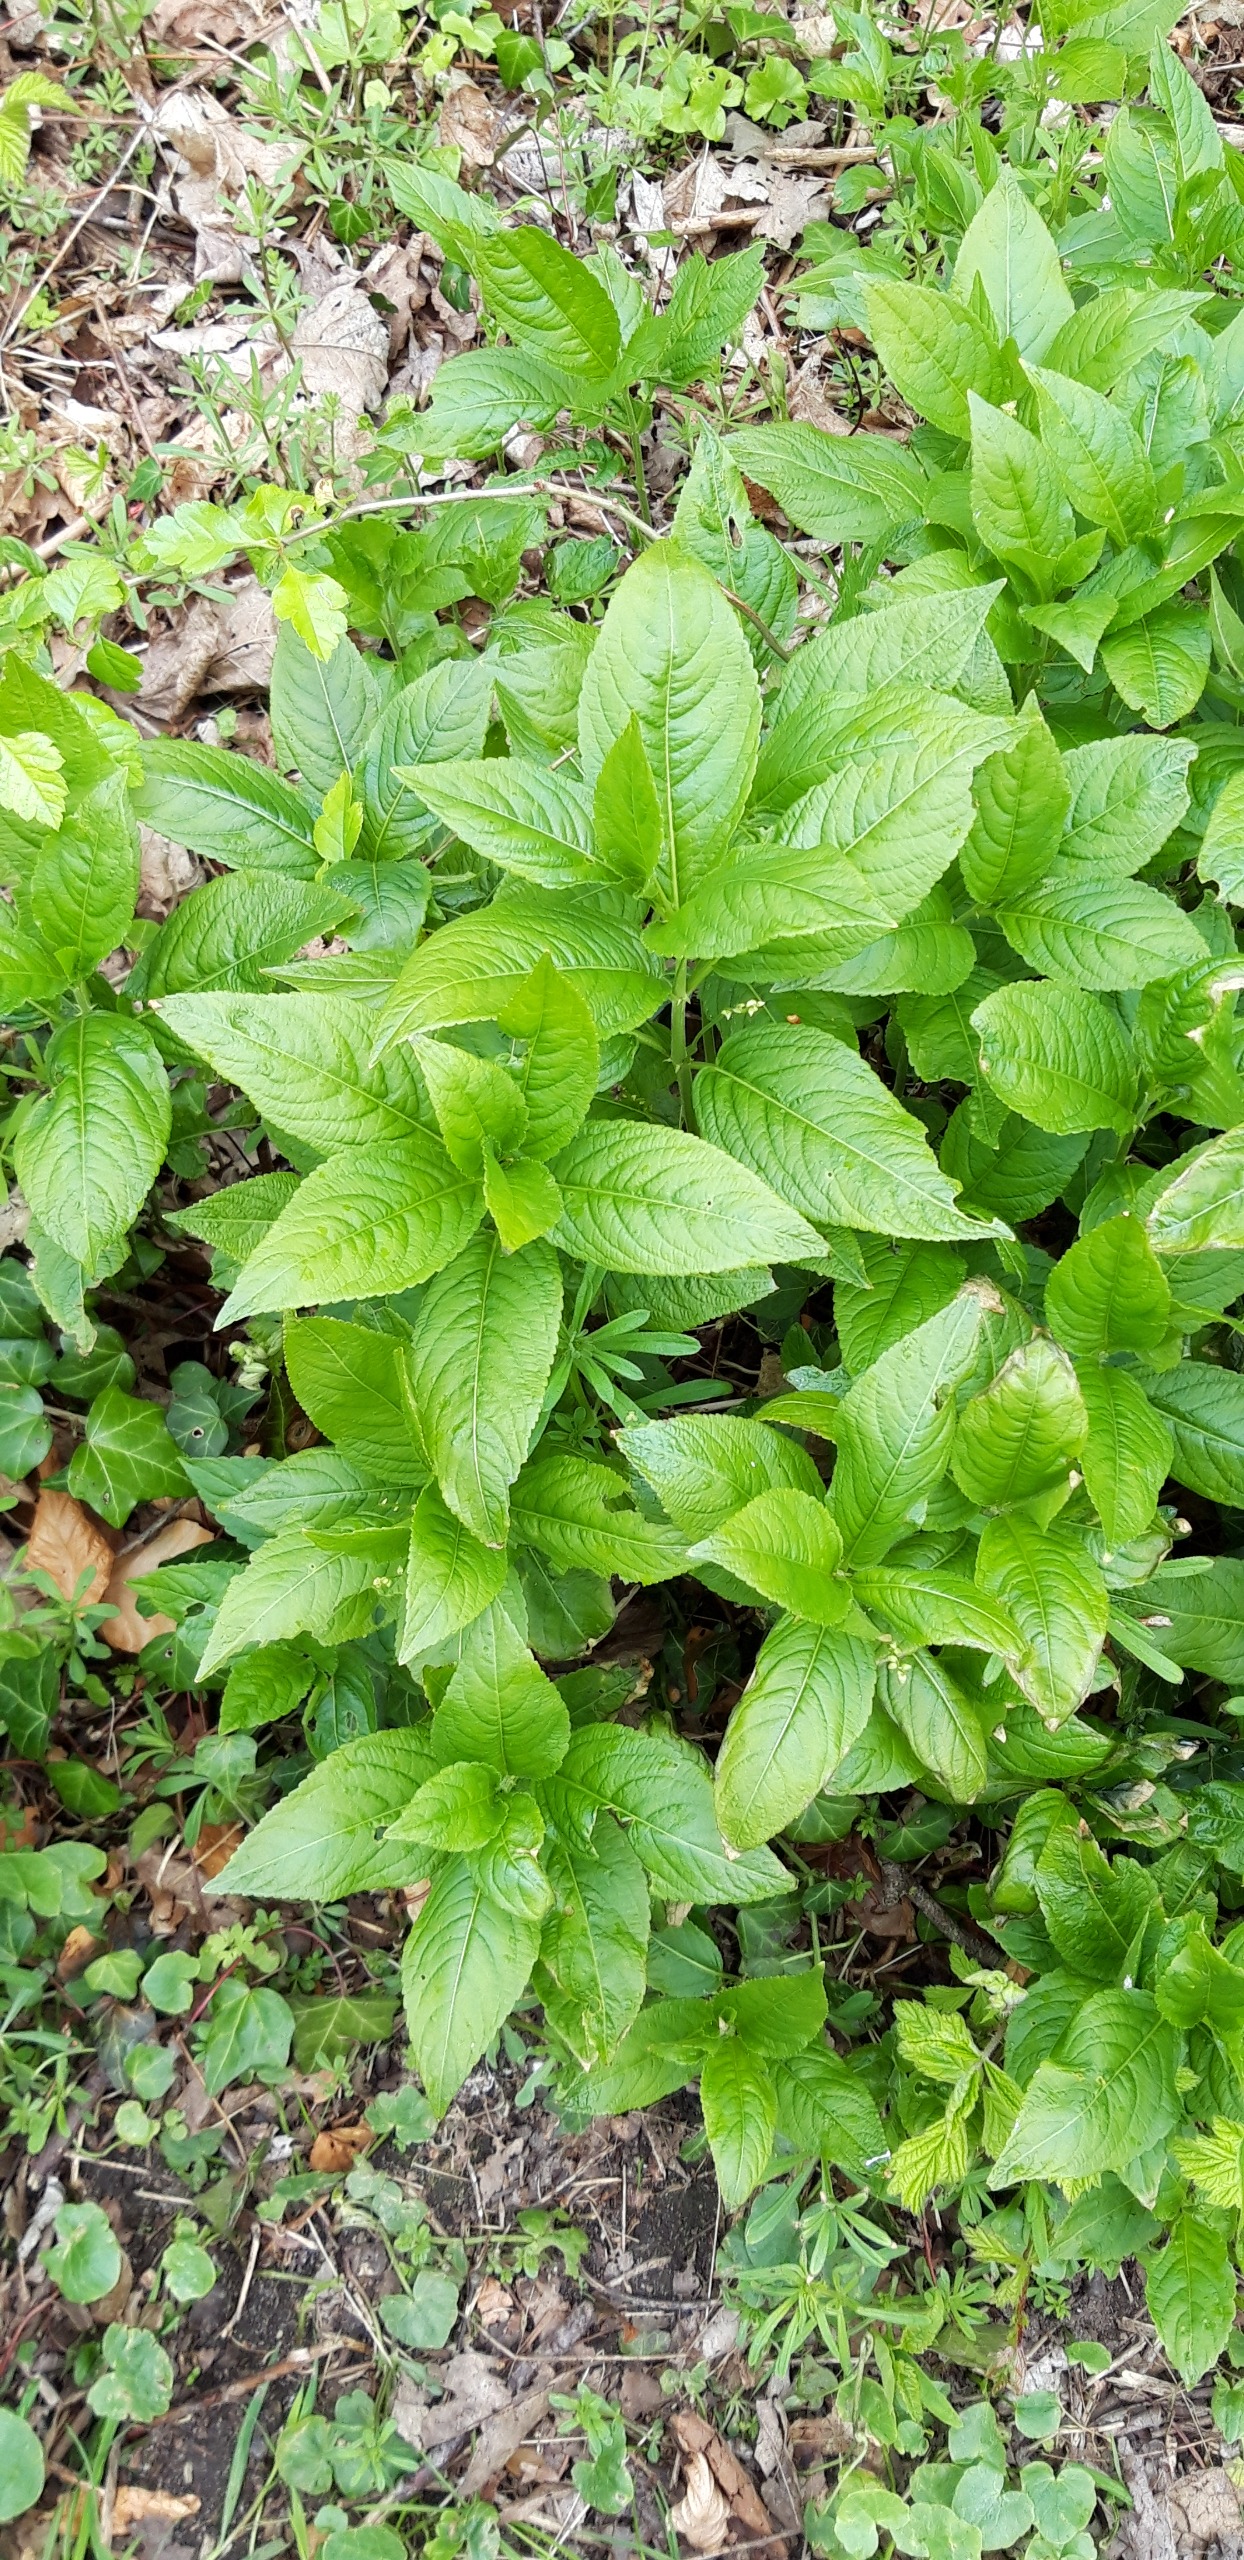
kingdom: Plantae
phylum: Tracheophyta
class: Magnoliopsida
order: Malpighiales
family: Euphorbiaceae
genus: Mercurialis
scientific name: Mercurialis perennis
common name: Almindelig bingelurt
